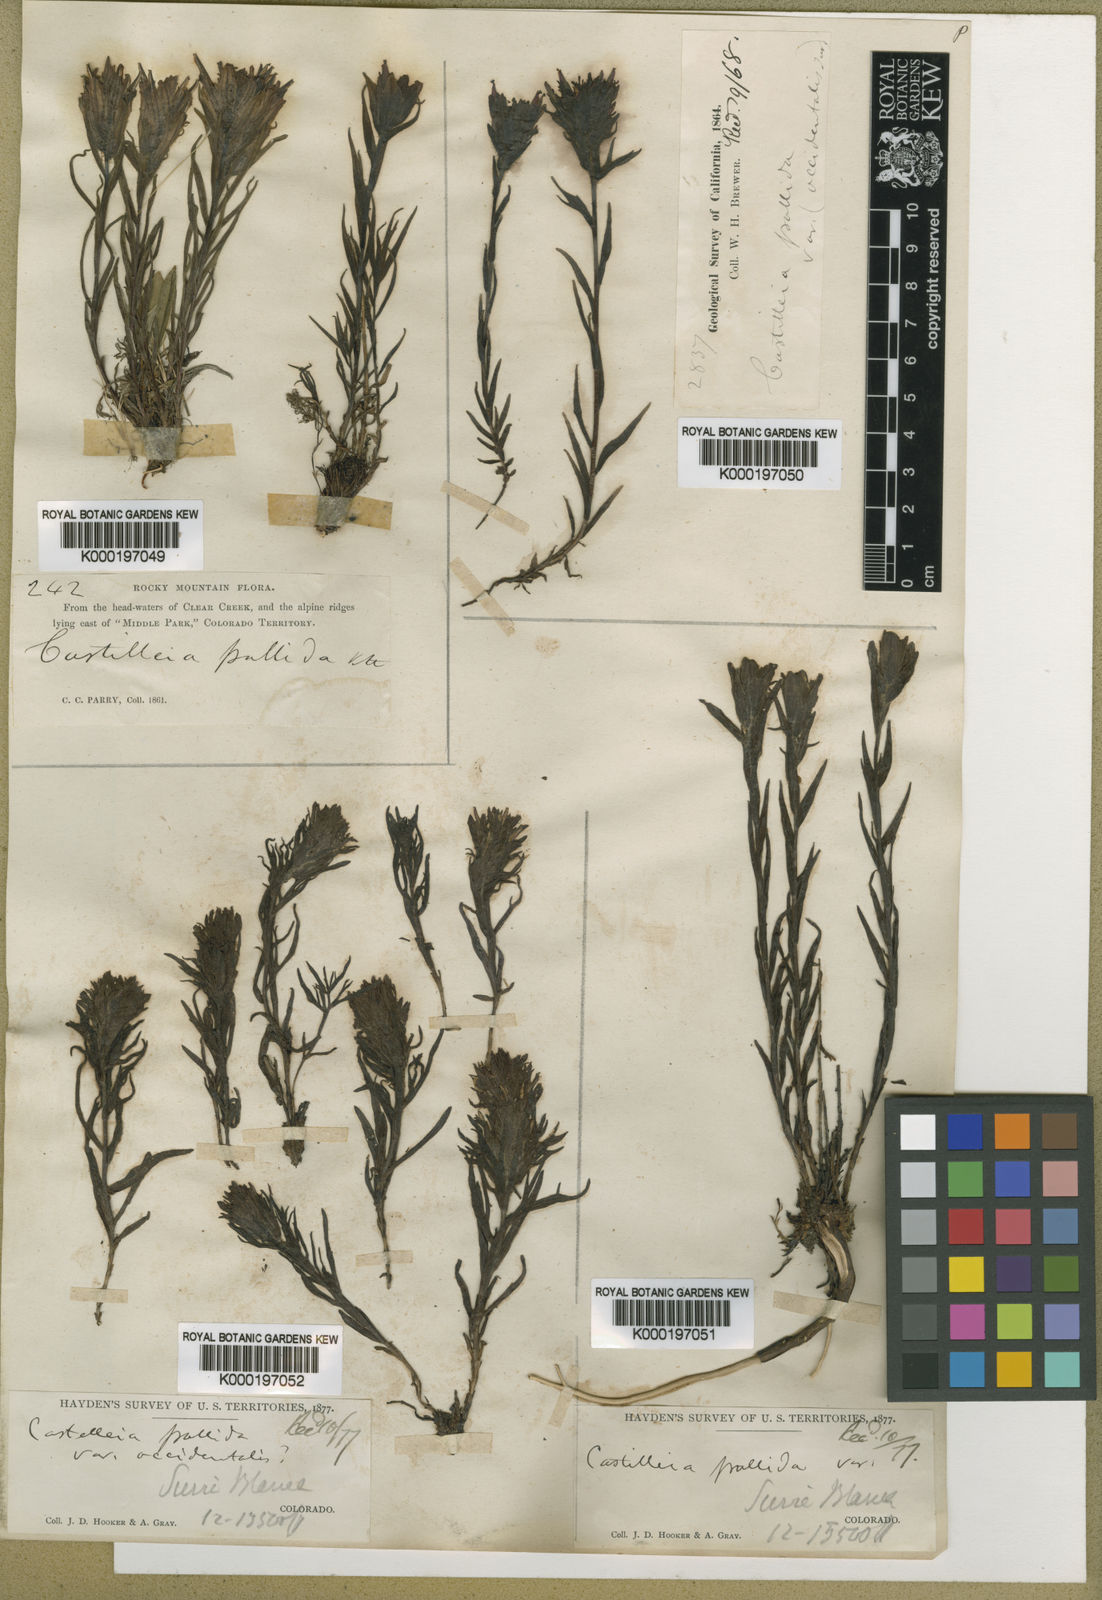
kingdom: Plantae
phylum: Tracheophyta
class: Magnoliopsida
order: Lamiales
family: Orobanchaceae
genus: Castilleja
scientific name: Castilleja pallida
